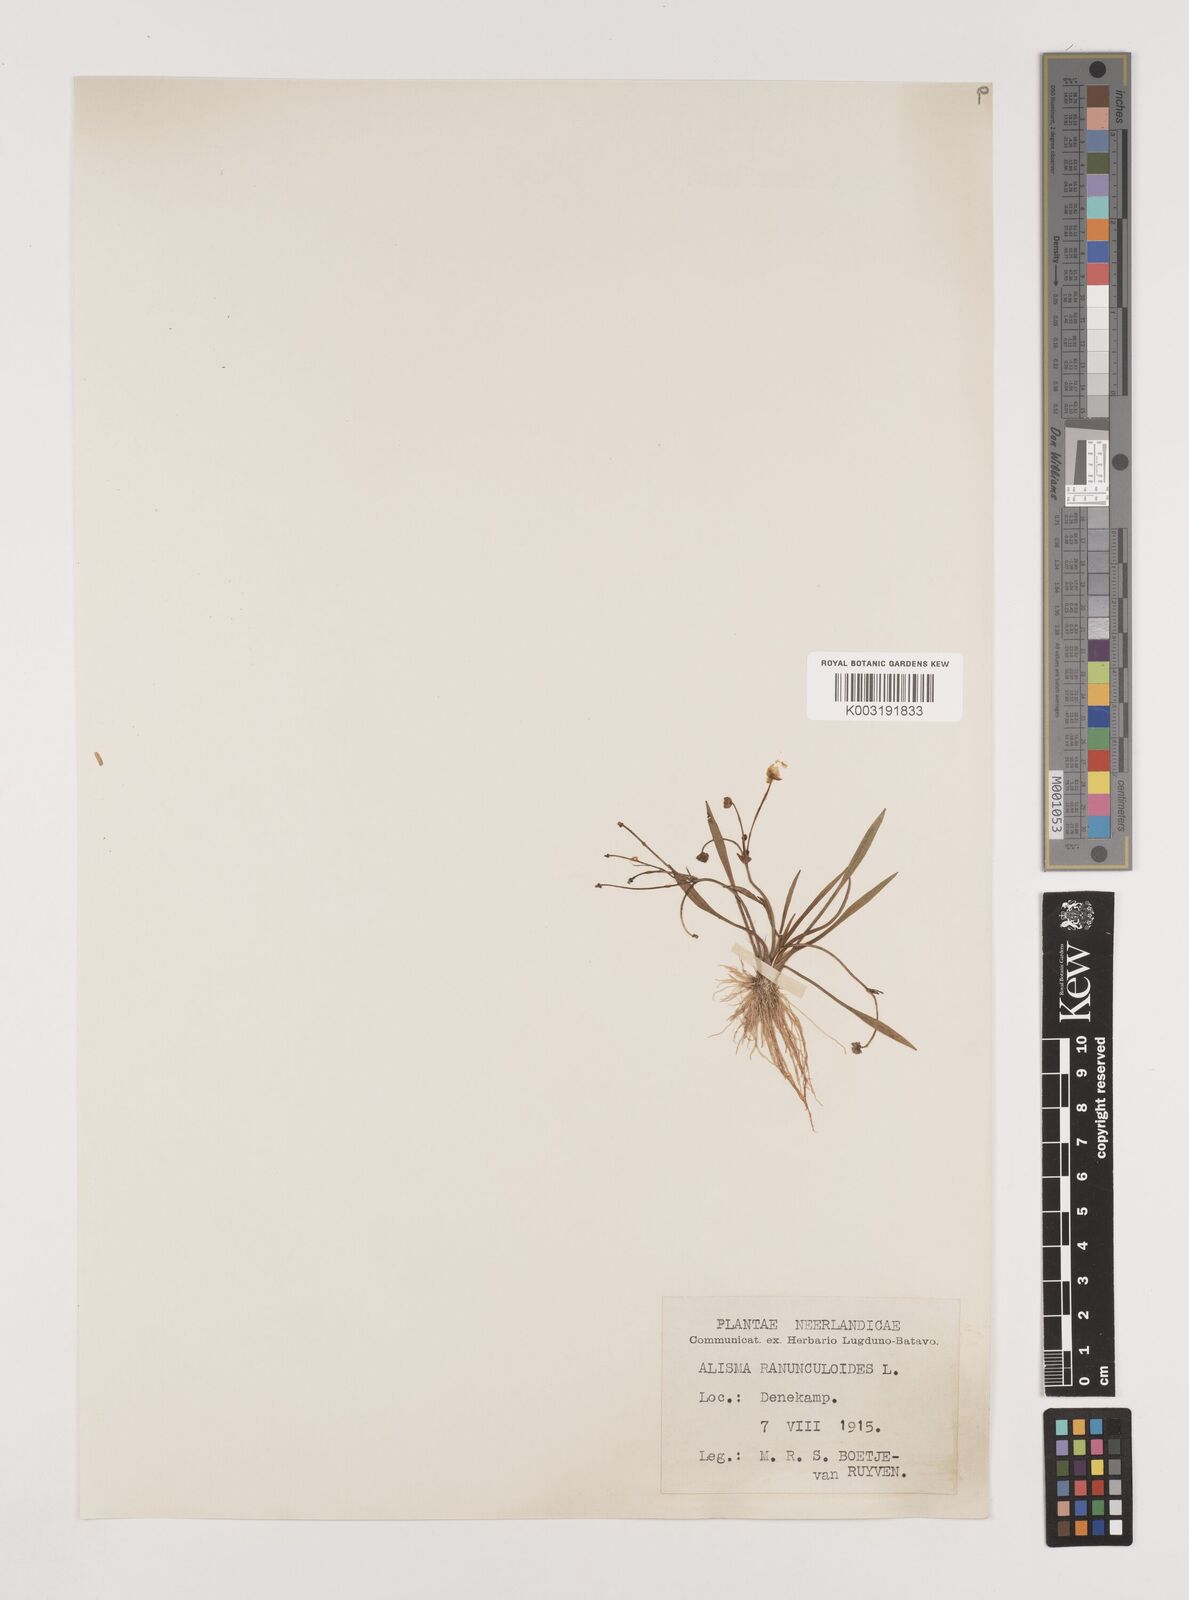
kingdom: Plantae
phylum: Tracheophyta
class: Liliopsida
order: Alismatales
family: Alismataceae
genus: Baldellia
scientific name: Baldellia ranunculoides
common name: Lesser water-plantain
